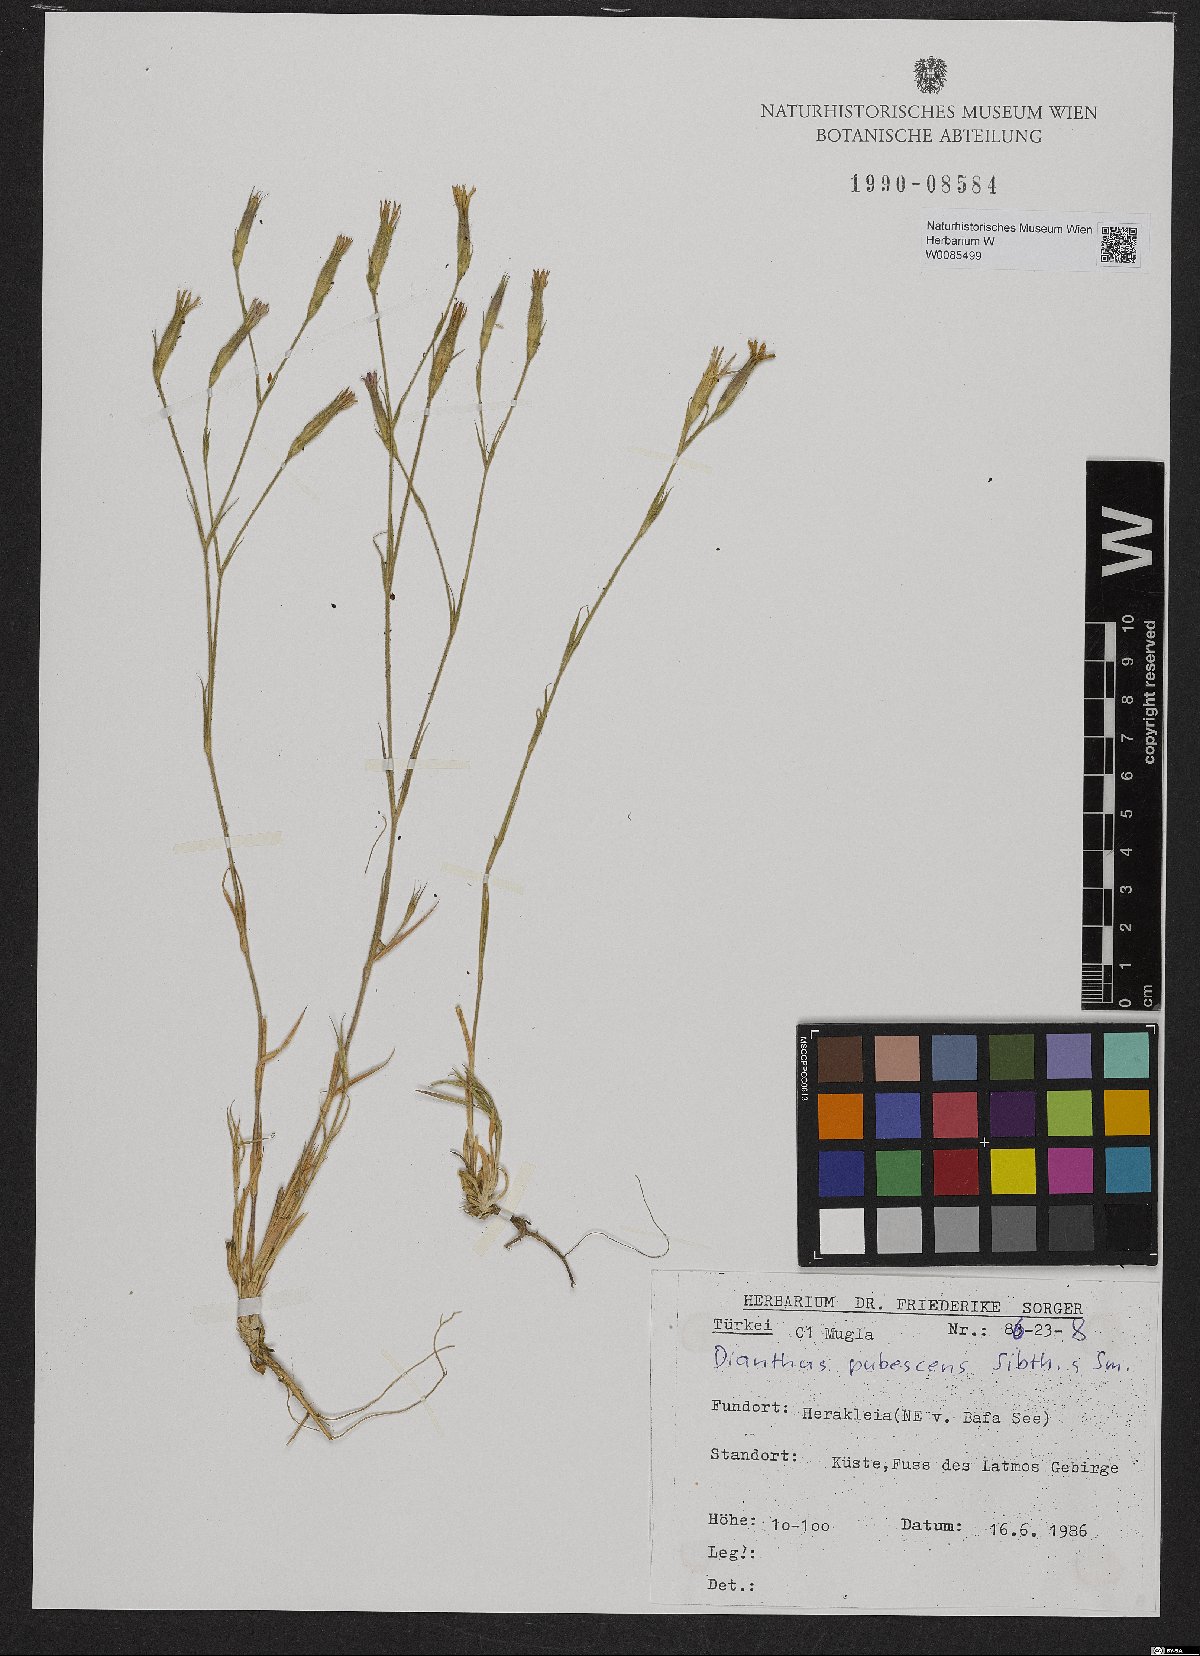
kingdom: Plantae
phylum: Tracheophyta
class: Magnoliopsida
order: Caryophyllales
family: Caryophyllaceae
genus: Dianthus
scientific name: Dianthus diffusus
